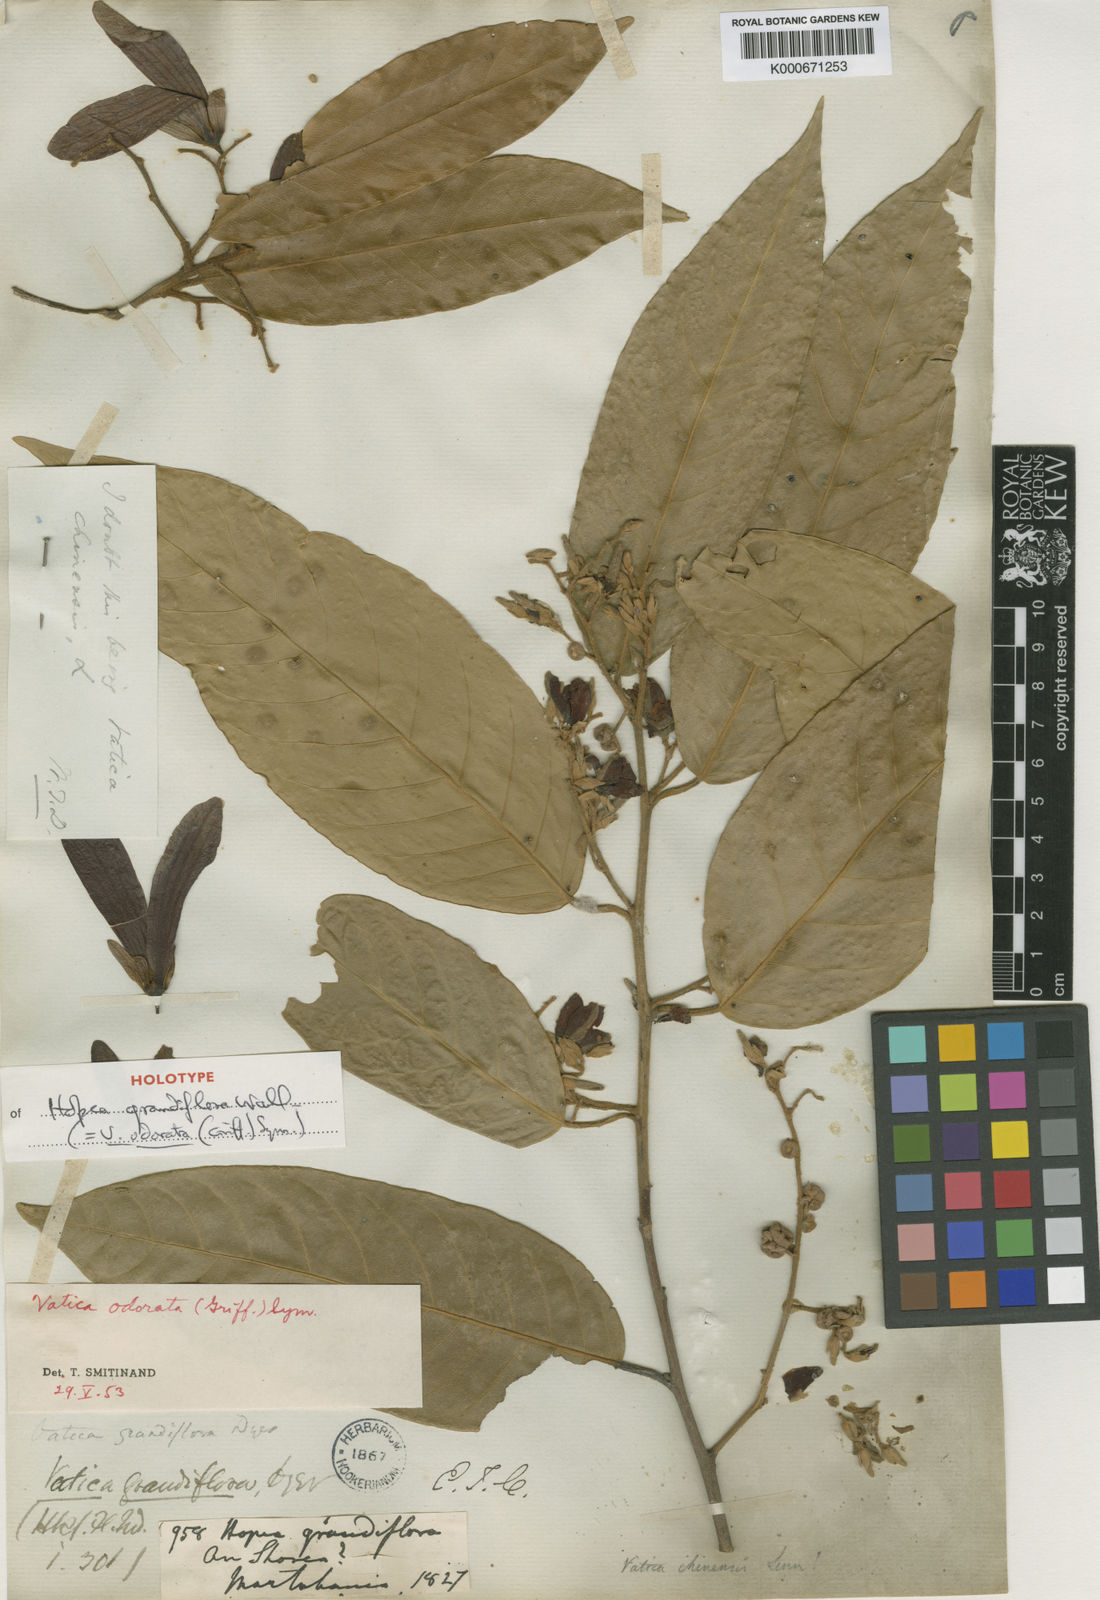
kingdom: Plantae
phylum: Tracheophyta
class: Magnoliopsida
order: Malvales
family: Dipterocarpaceae
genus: Vatica
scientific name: Vatica odorata
